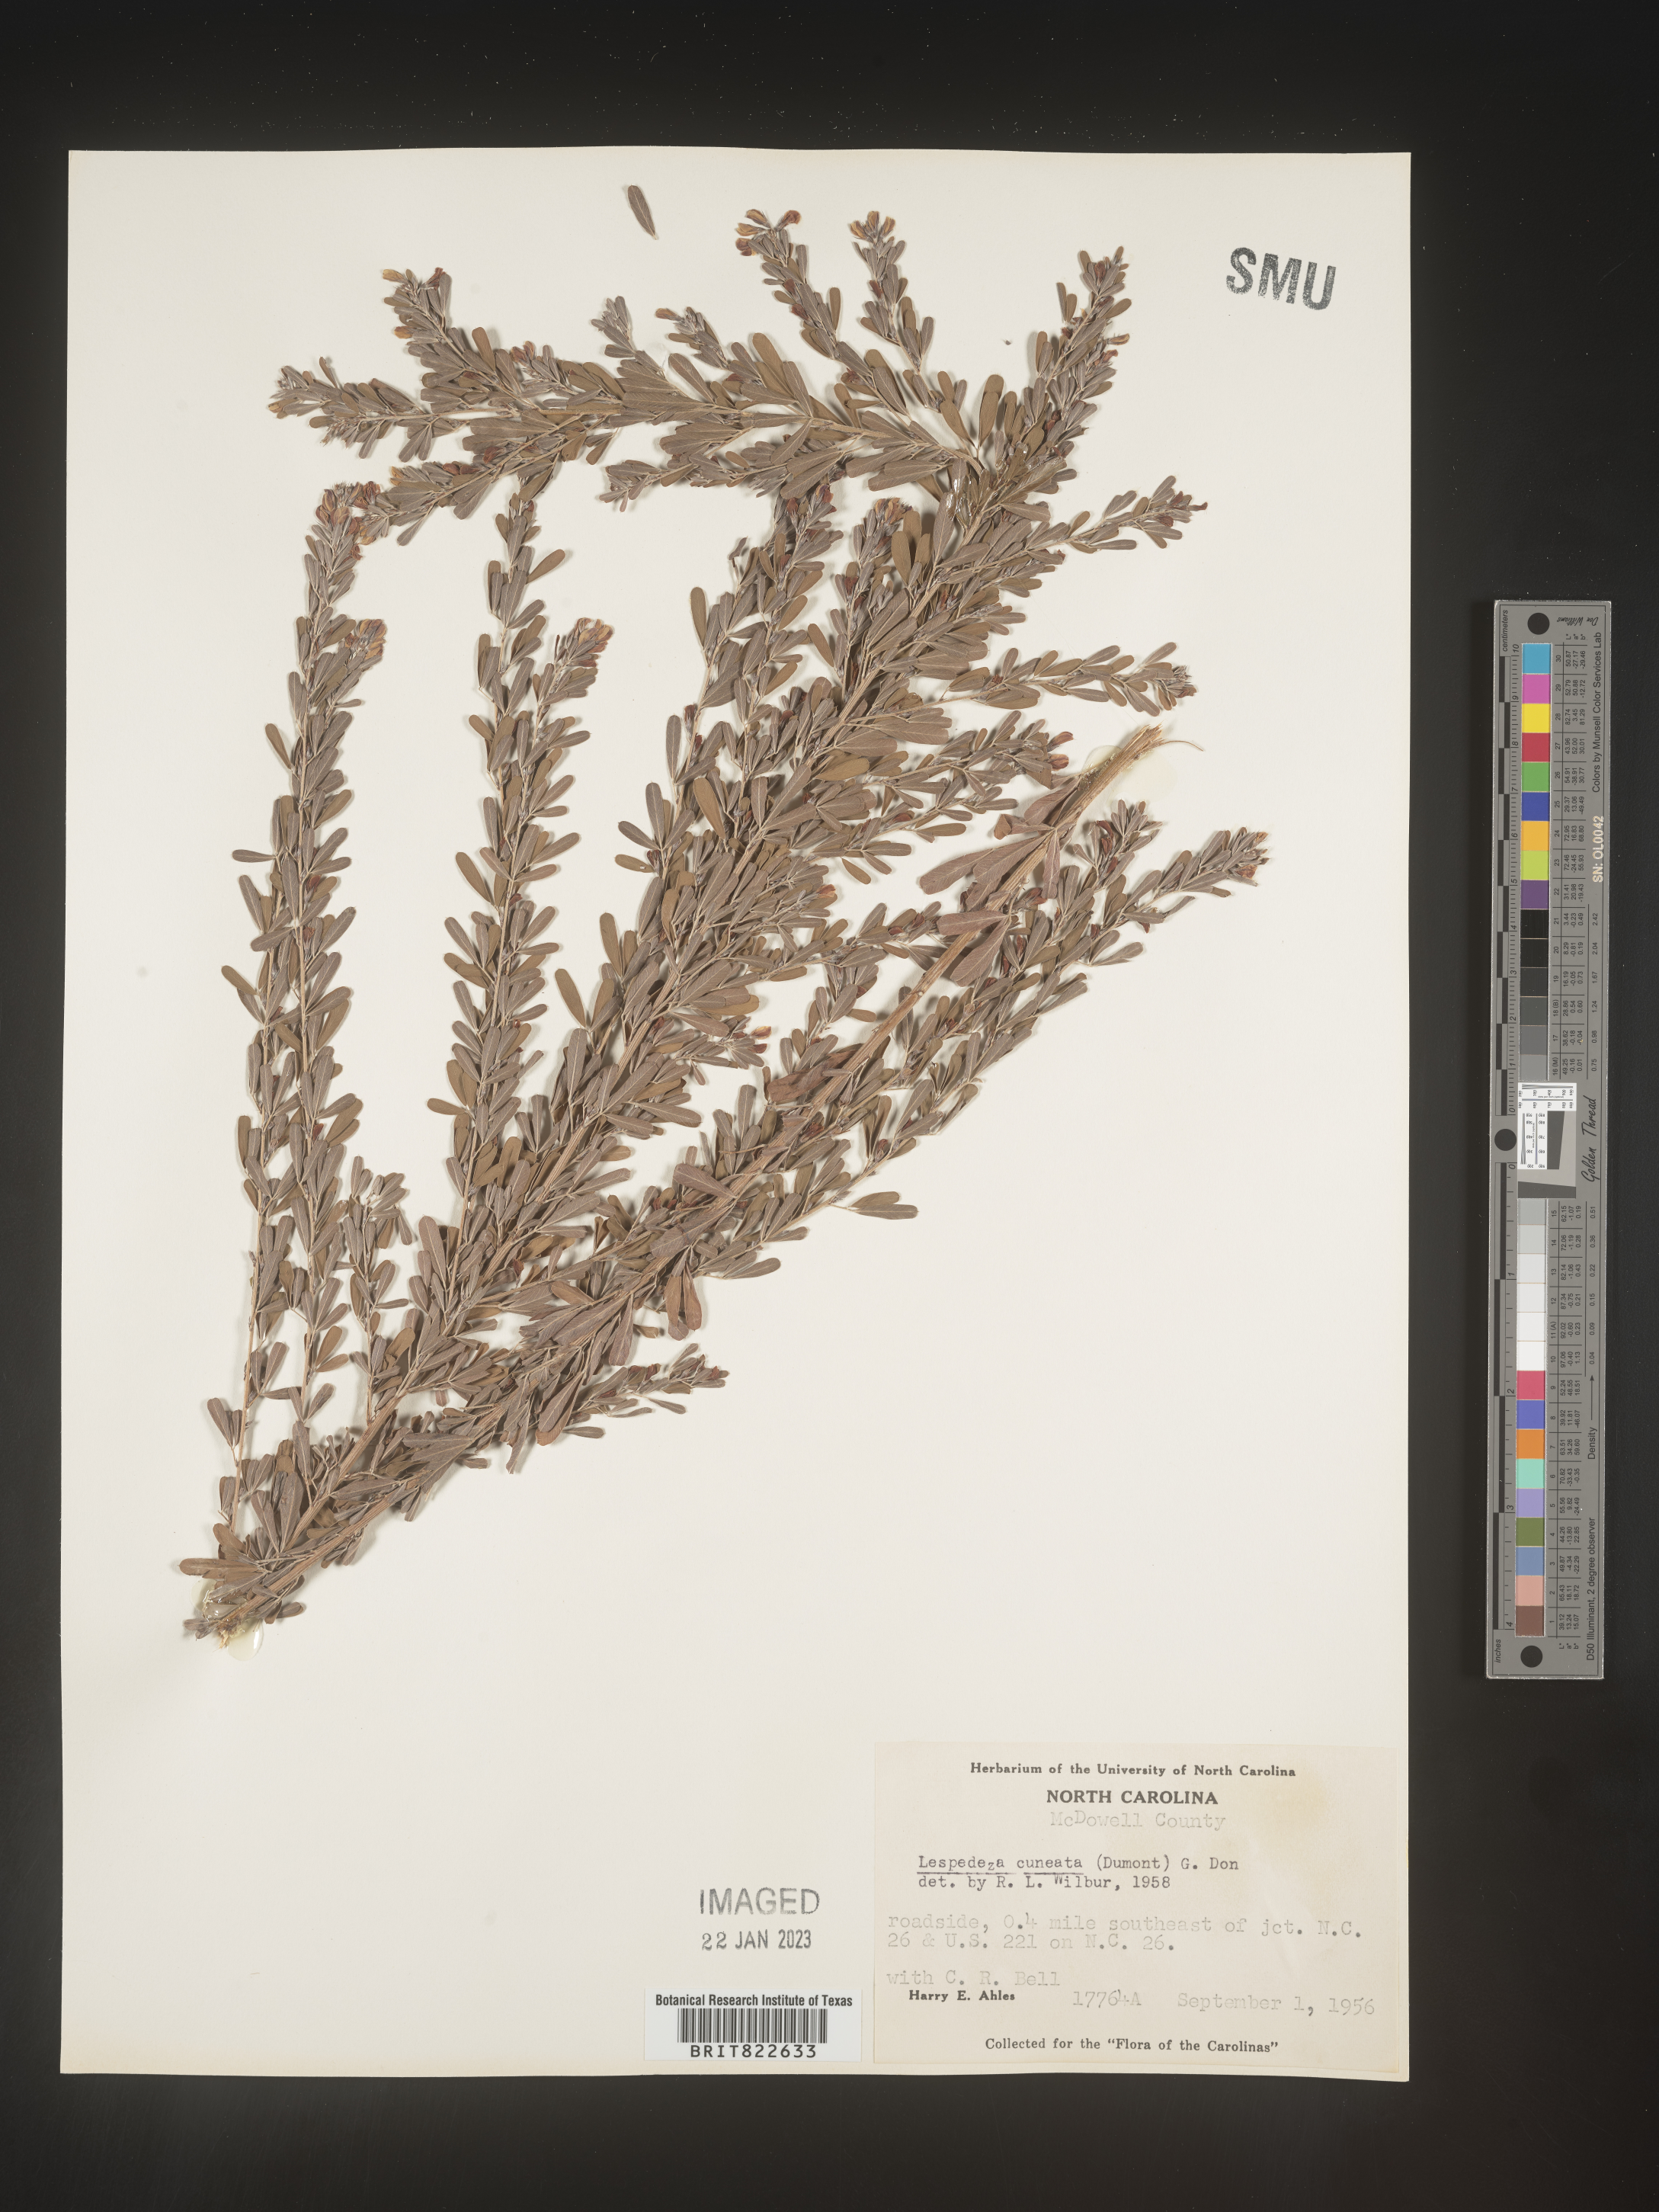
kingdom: Plantae
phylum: Tracheophyta
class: Magnoliopsida
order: Fabales
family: Fabaceae
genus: Lespedeza
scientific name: Lespedeza cuneata
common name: Chinese bush-clover
